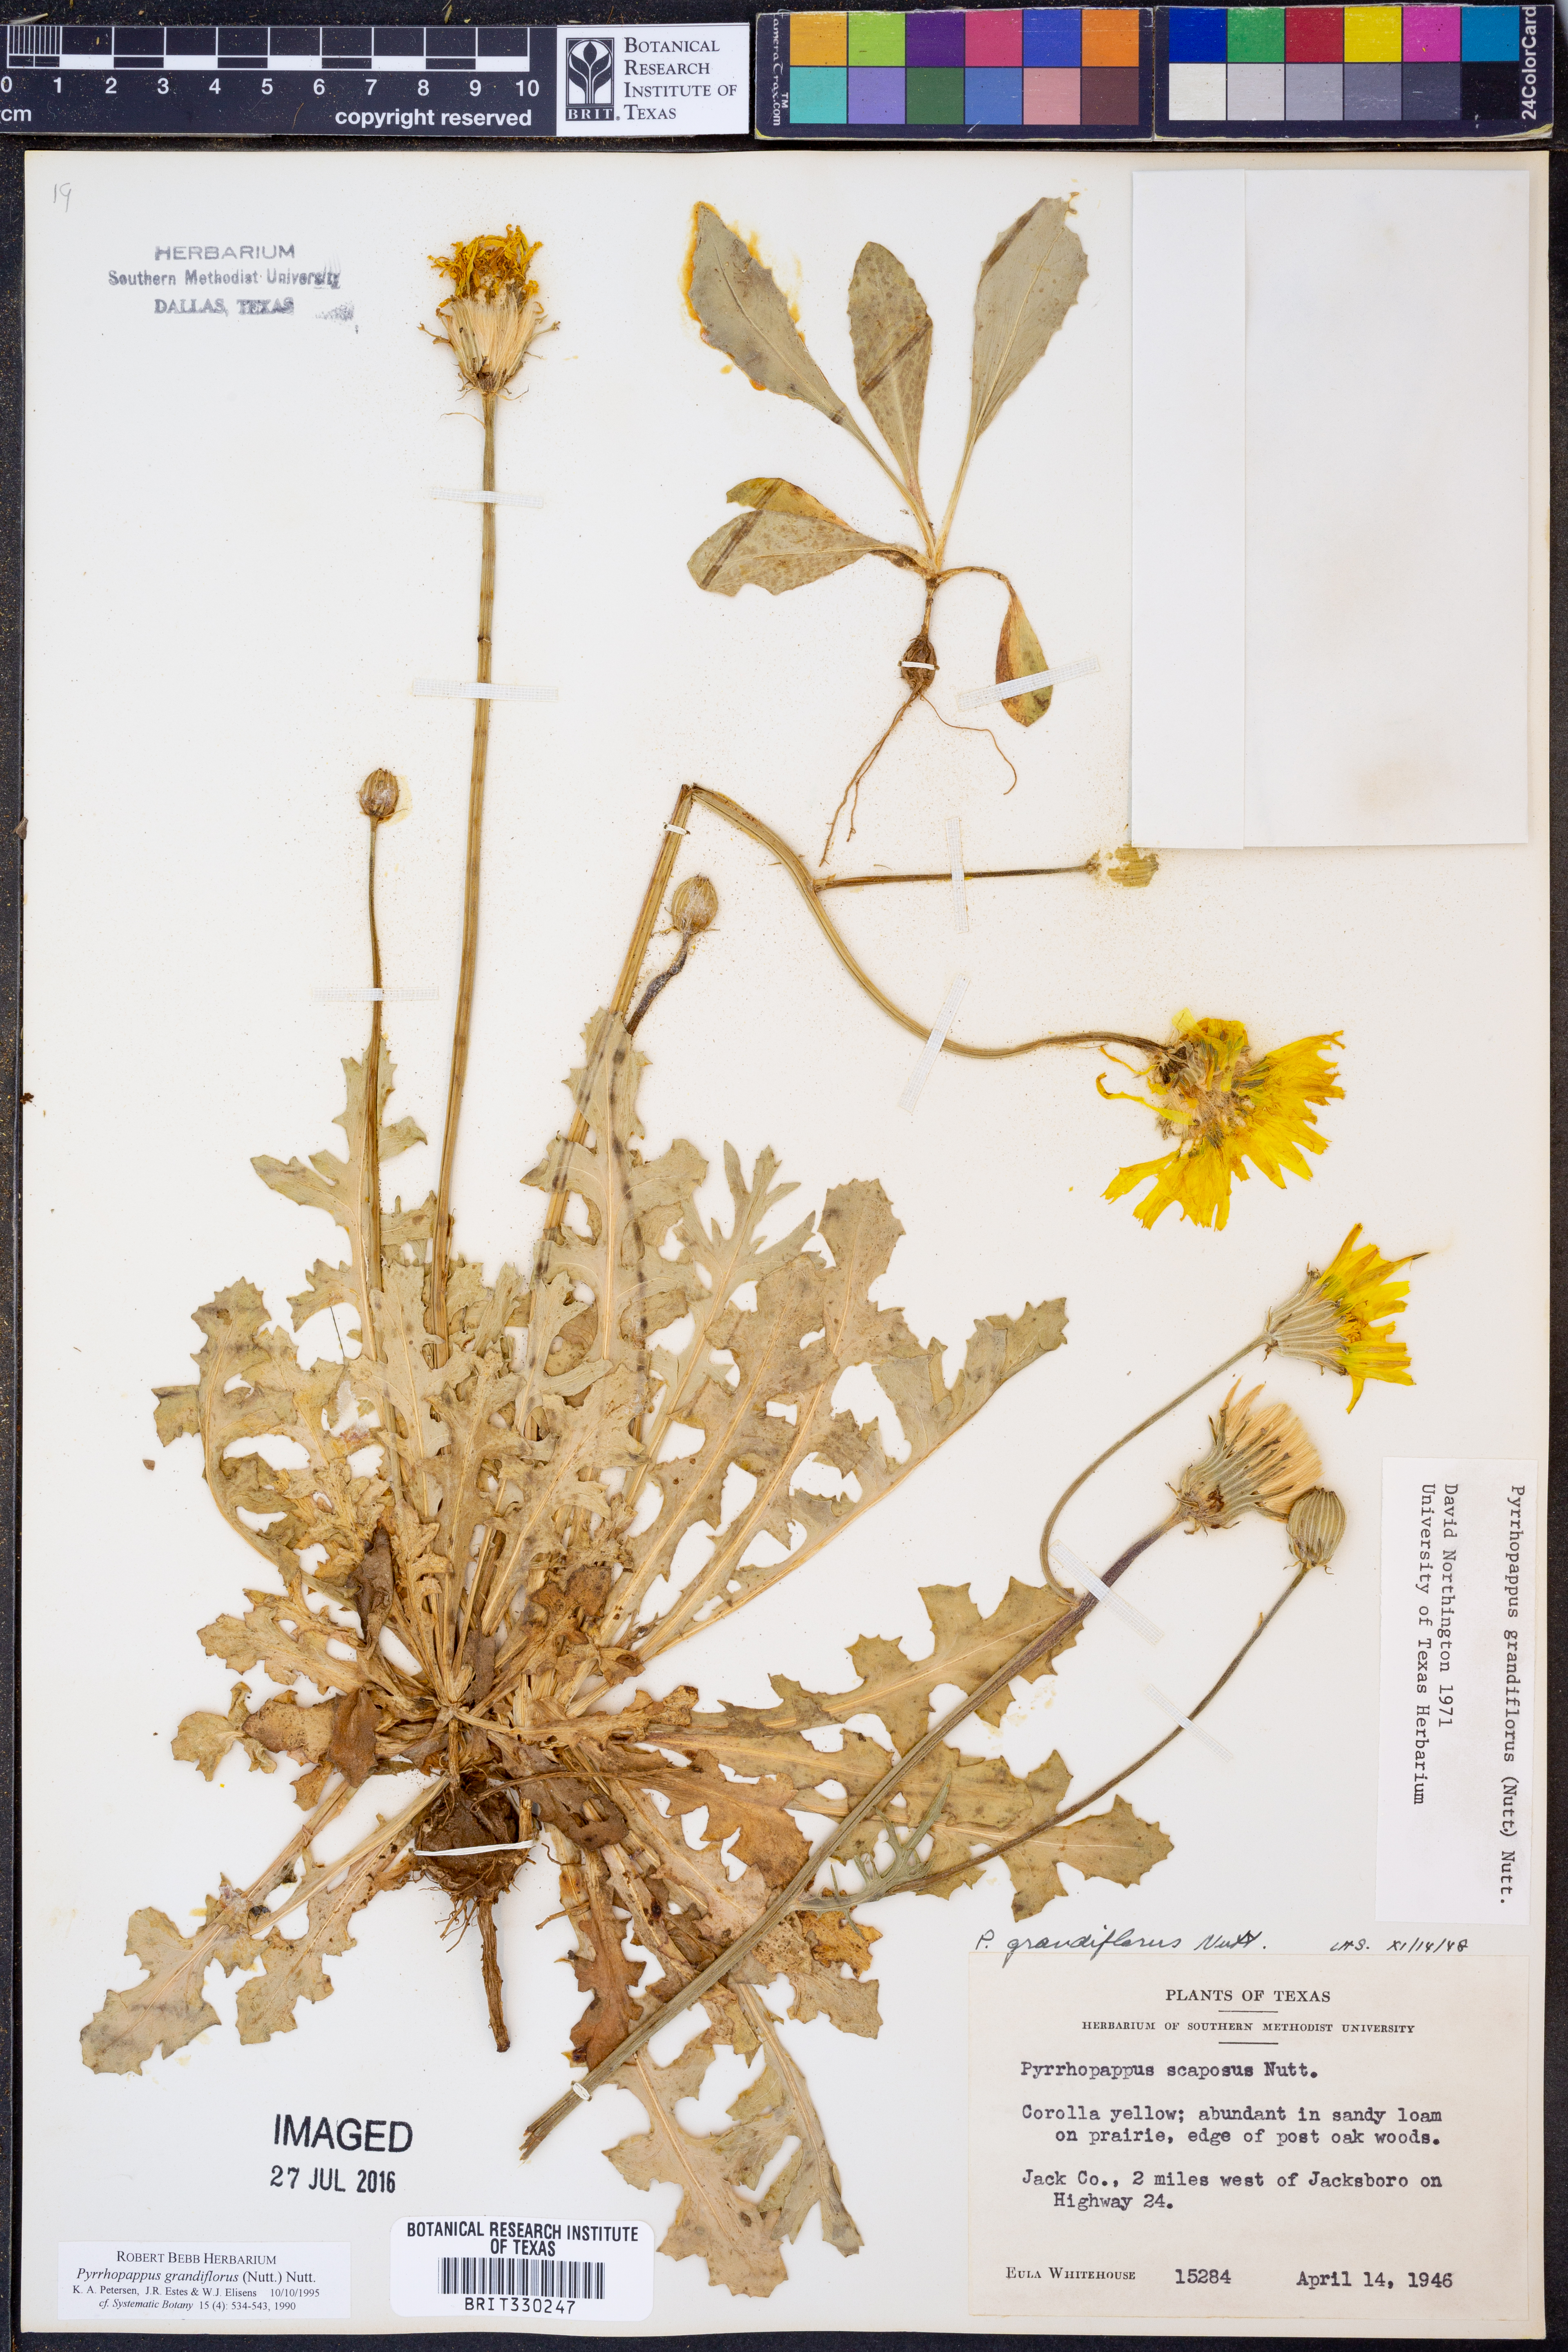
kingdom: Plantae
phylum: Tracheophyta
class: Magnoliopsida
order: Asterales
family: Asteraceae
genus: Pyrrhopappus
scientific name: Pyrrhopappus grandiflorus
